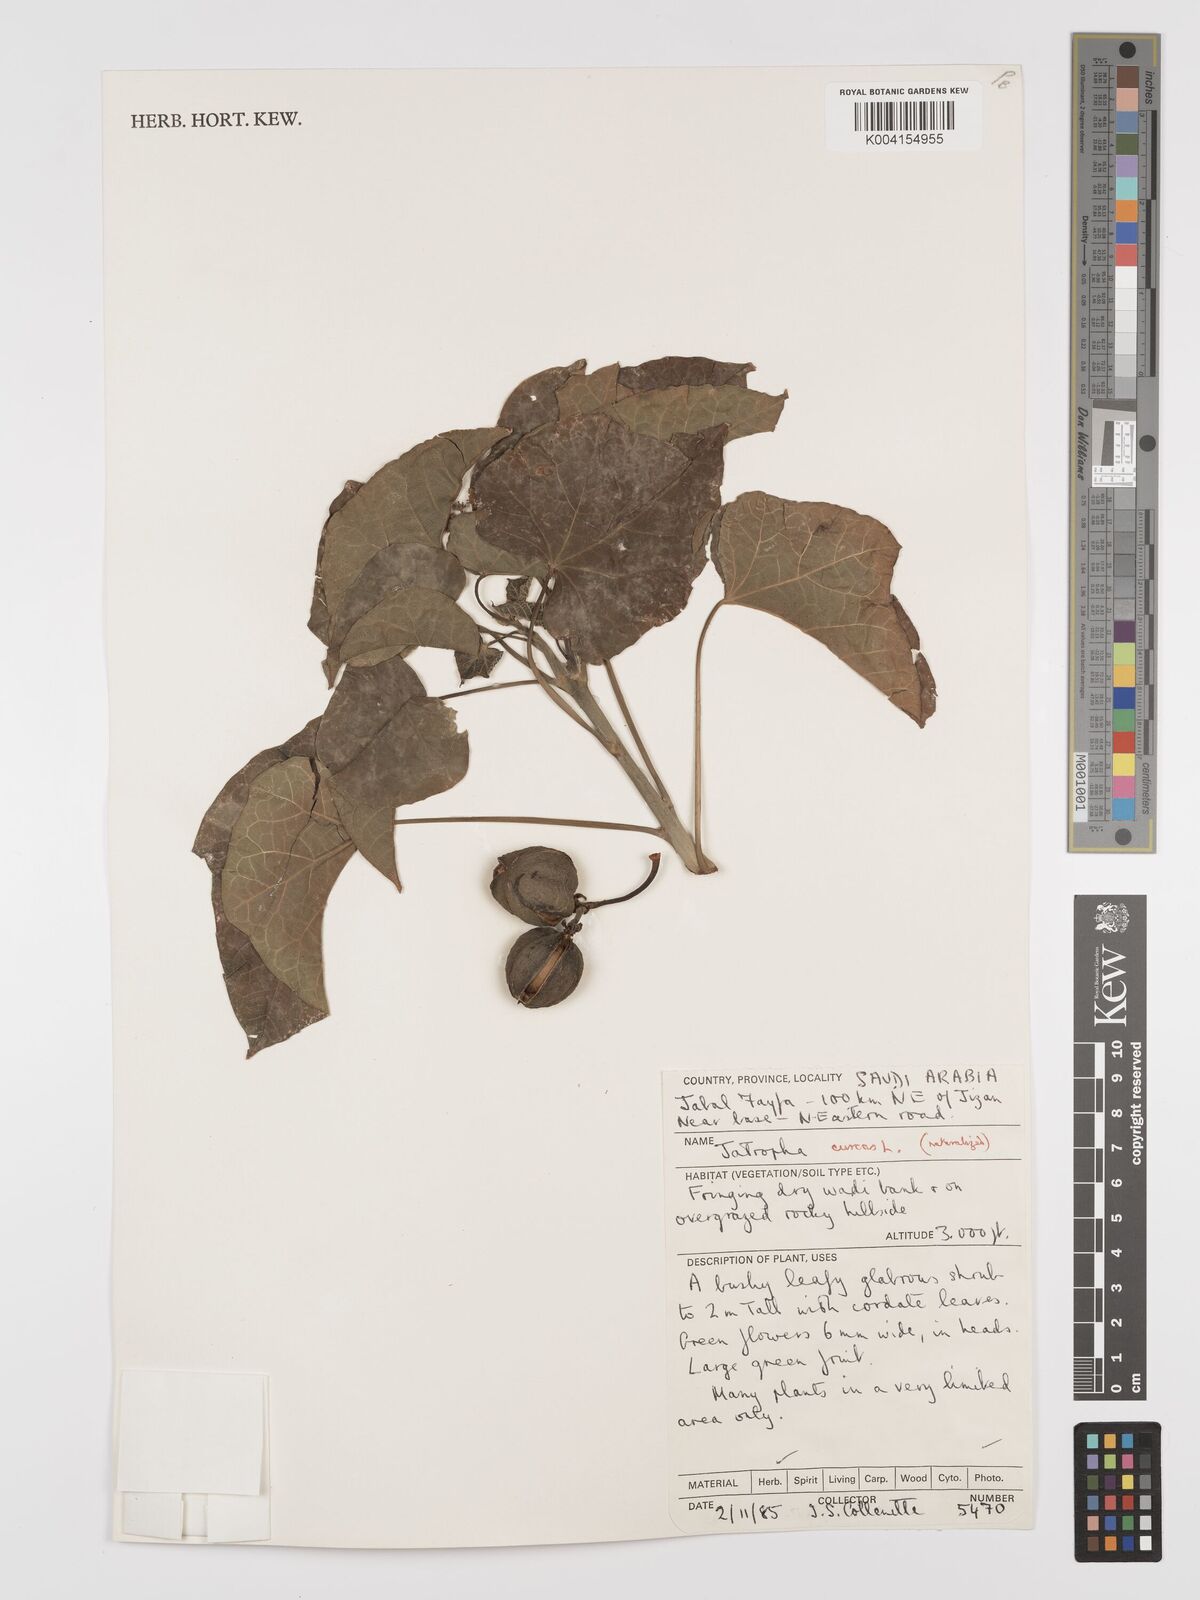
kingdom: Plantae
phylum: Tracheophyta
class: Magnoliopsida
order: Malpighiales
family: Euphorbiaceae
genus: Jatropha
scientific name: Jatropha curcas
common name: Barbados nut
